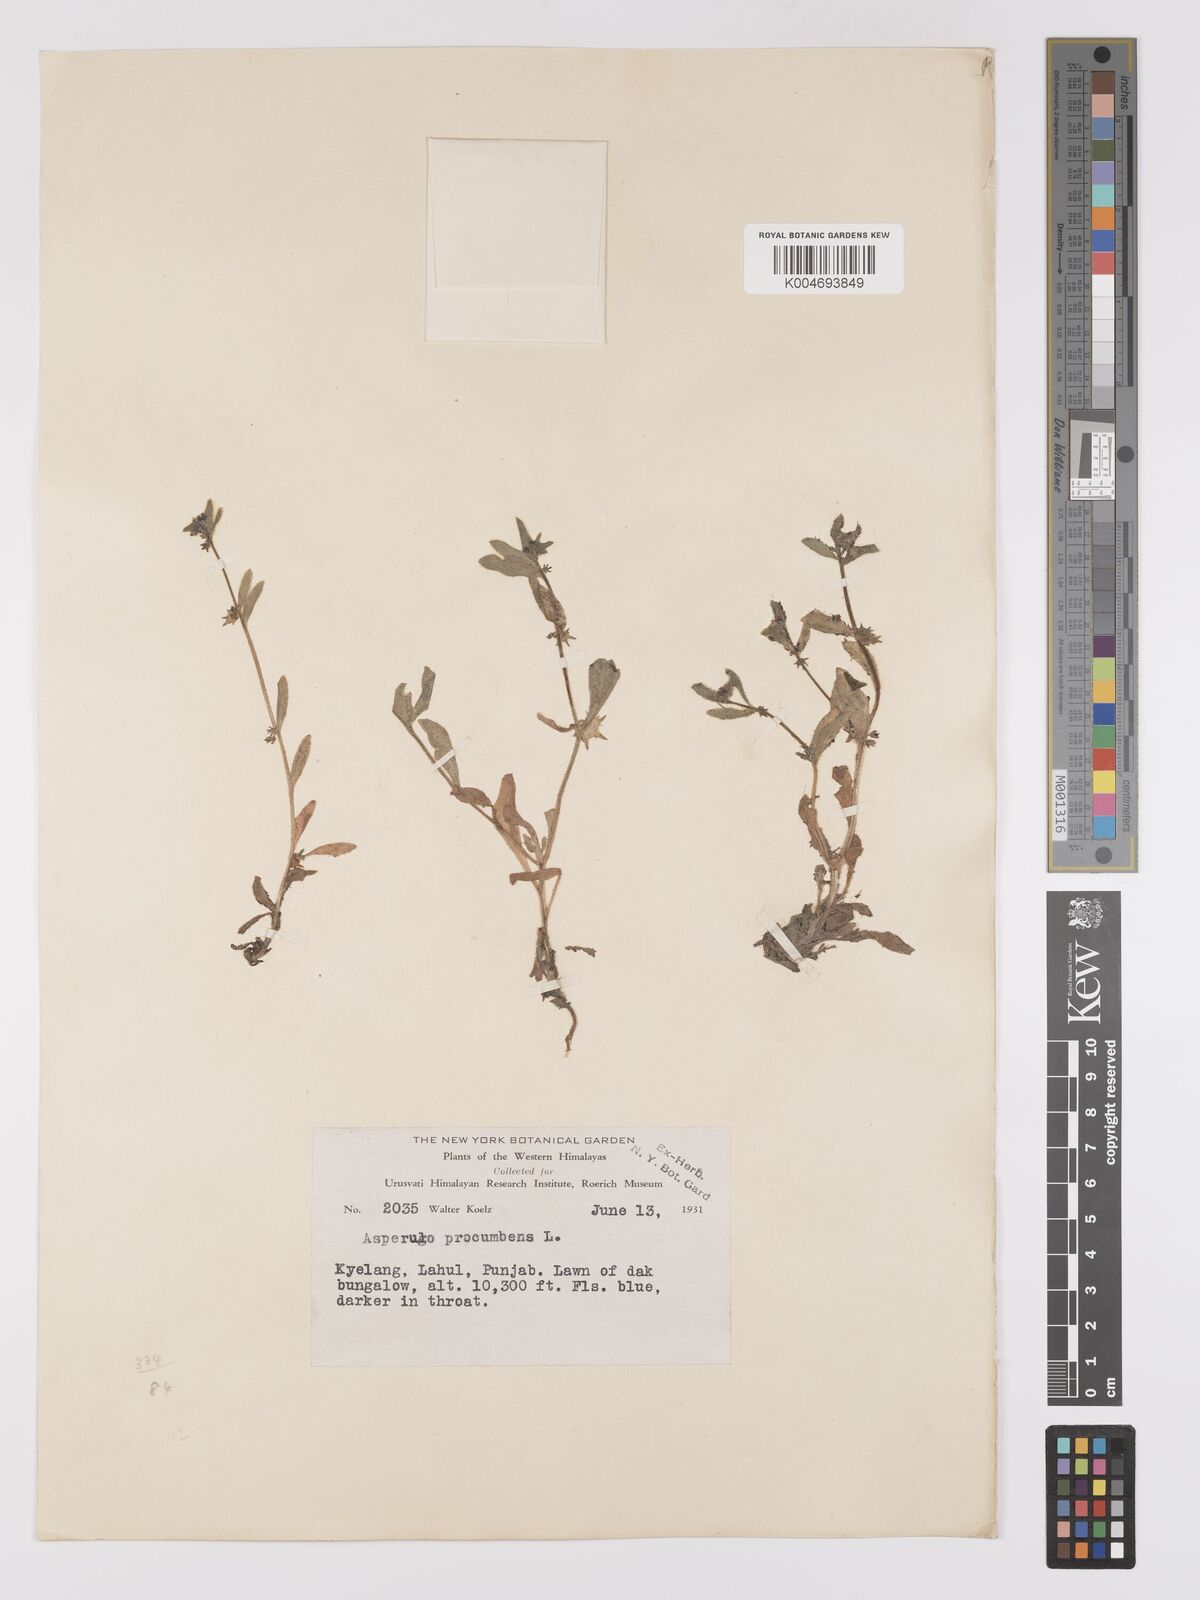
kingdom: Plantae
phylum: Tracheophyta
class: Magnoliopsida
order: Boraginales
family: Boraginaceae
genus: Asperugo
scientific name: Asperugo procumbens
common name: Madwort
